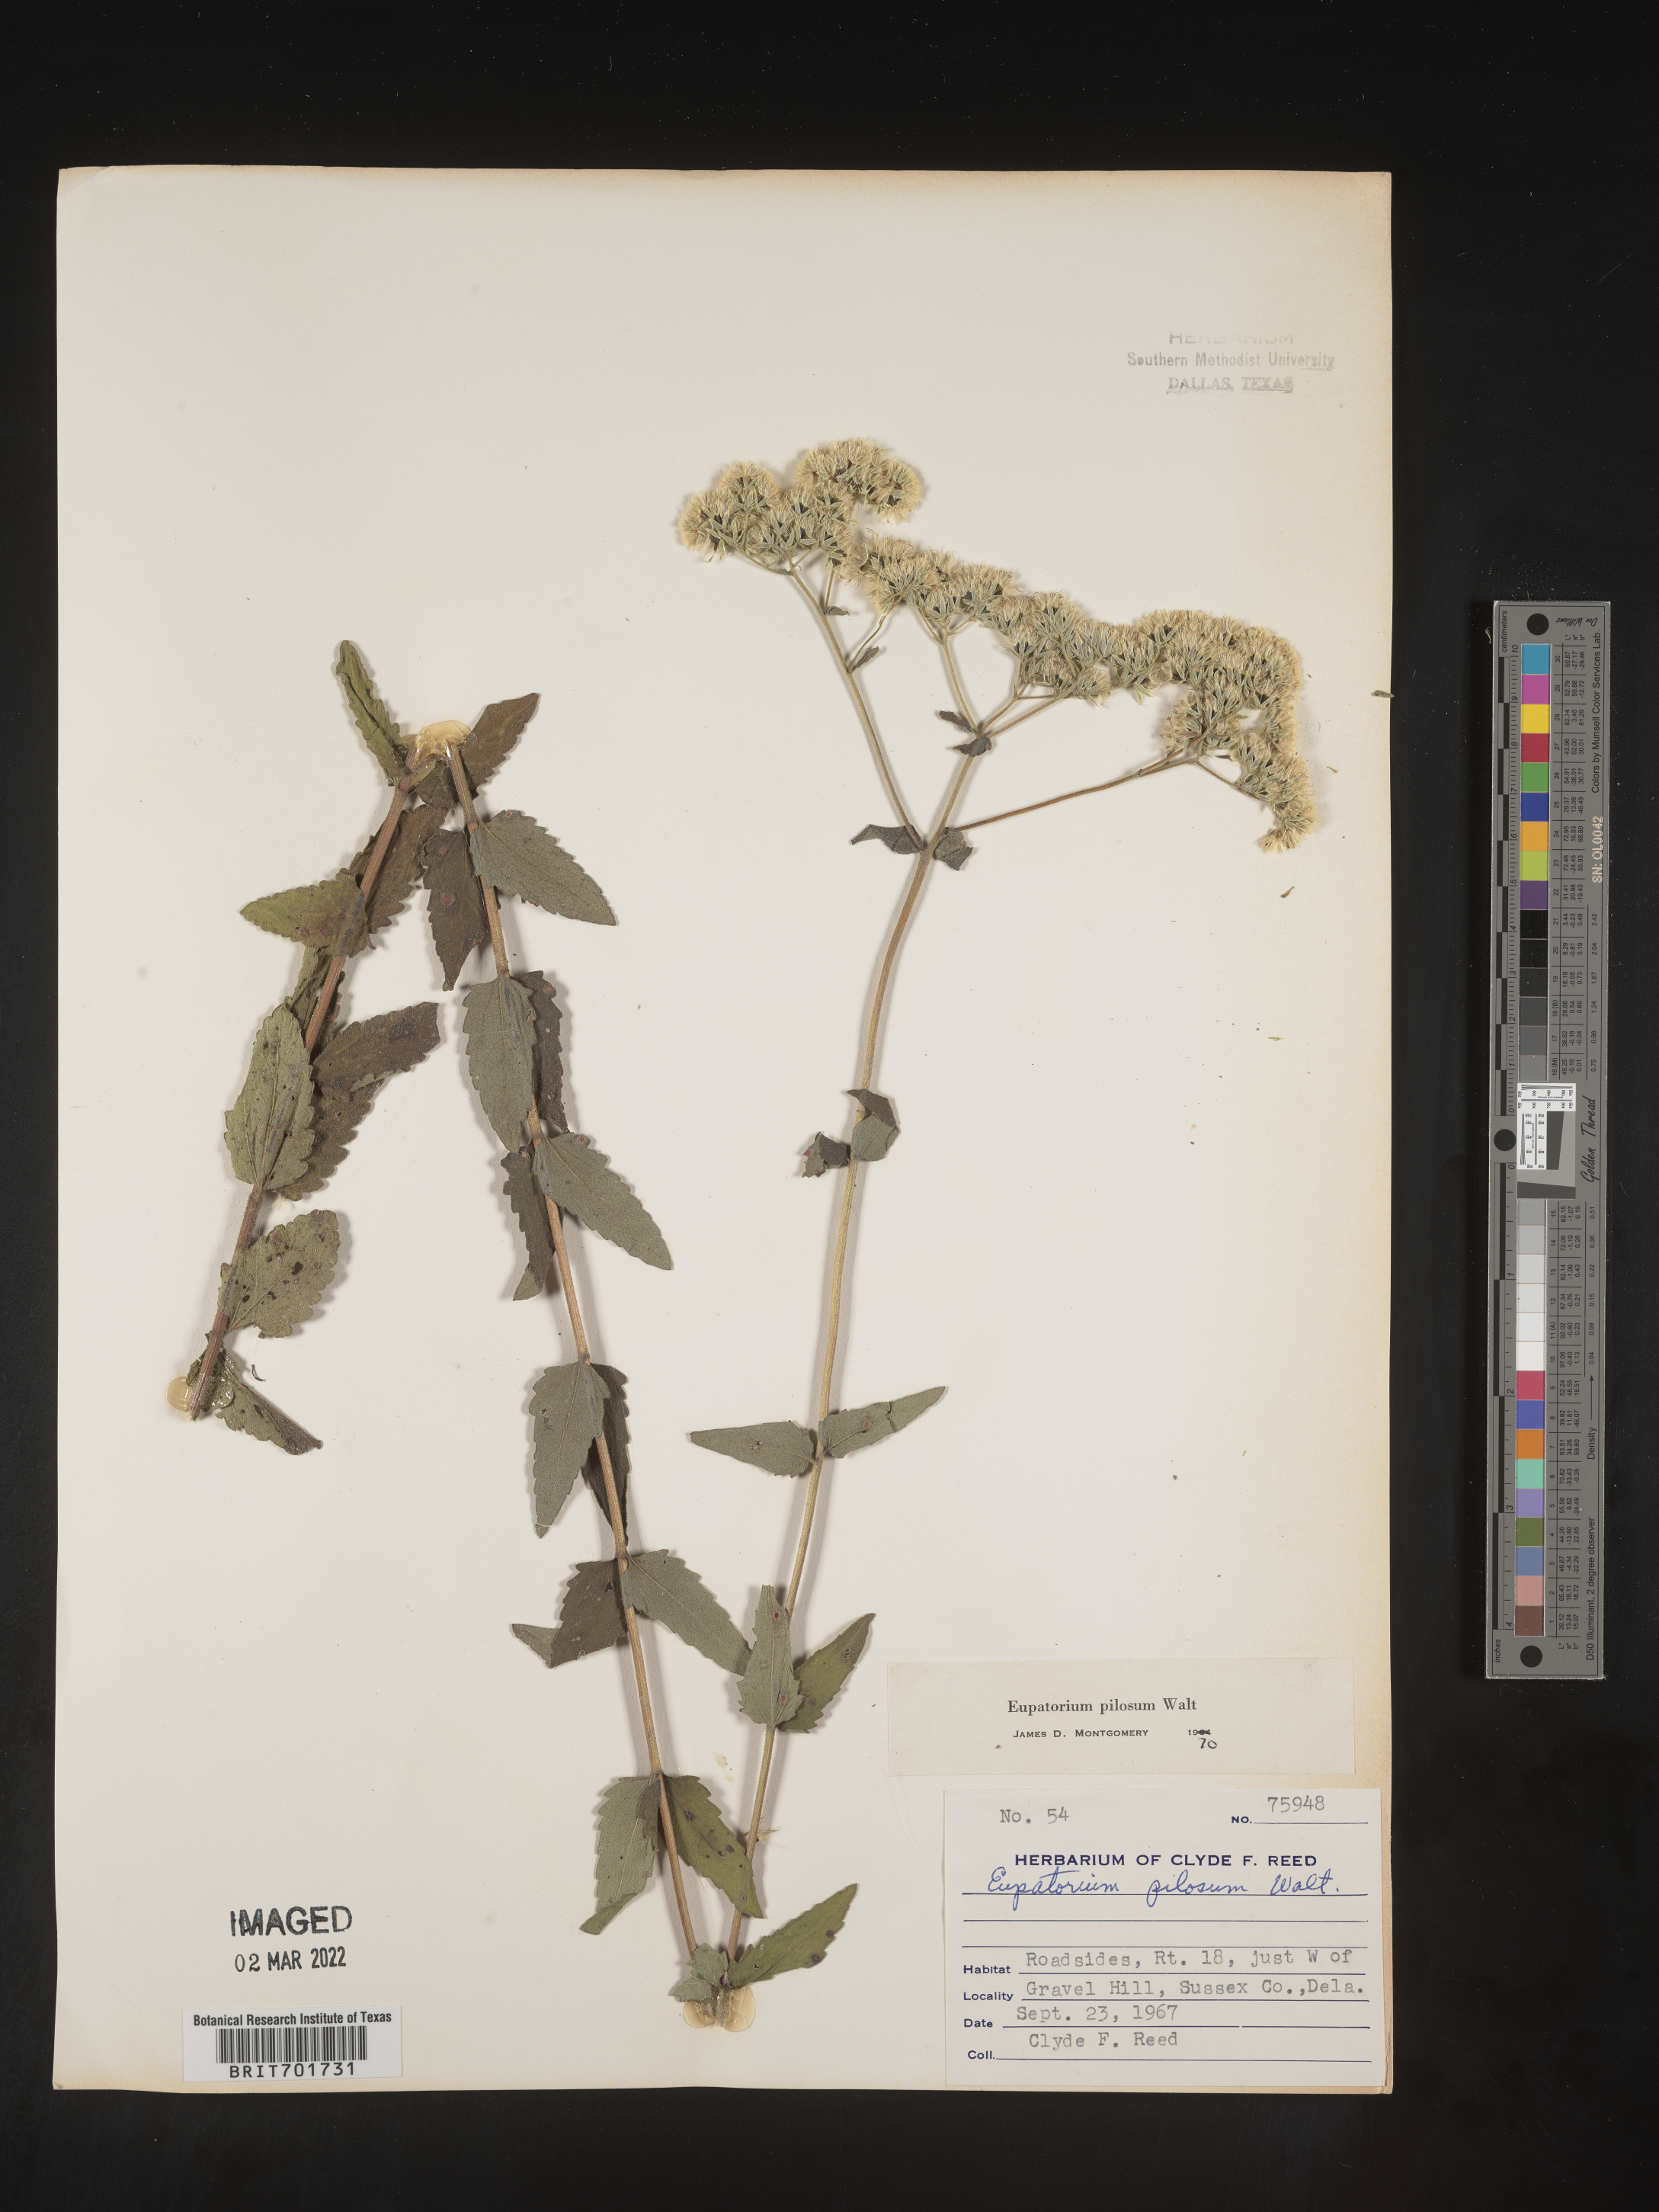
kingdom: Plantae
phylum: Tracheophyta
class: Magnoliopsida
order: Asterales
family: Asteraceae
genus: Eupatorium
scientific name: Eupatorium pilosum
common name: Rough boneset
